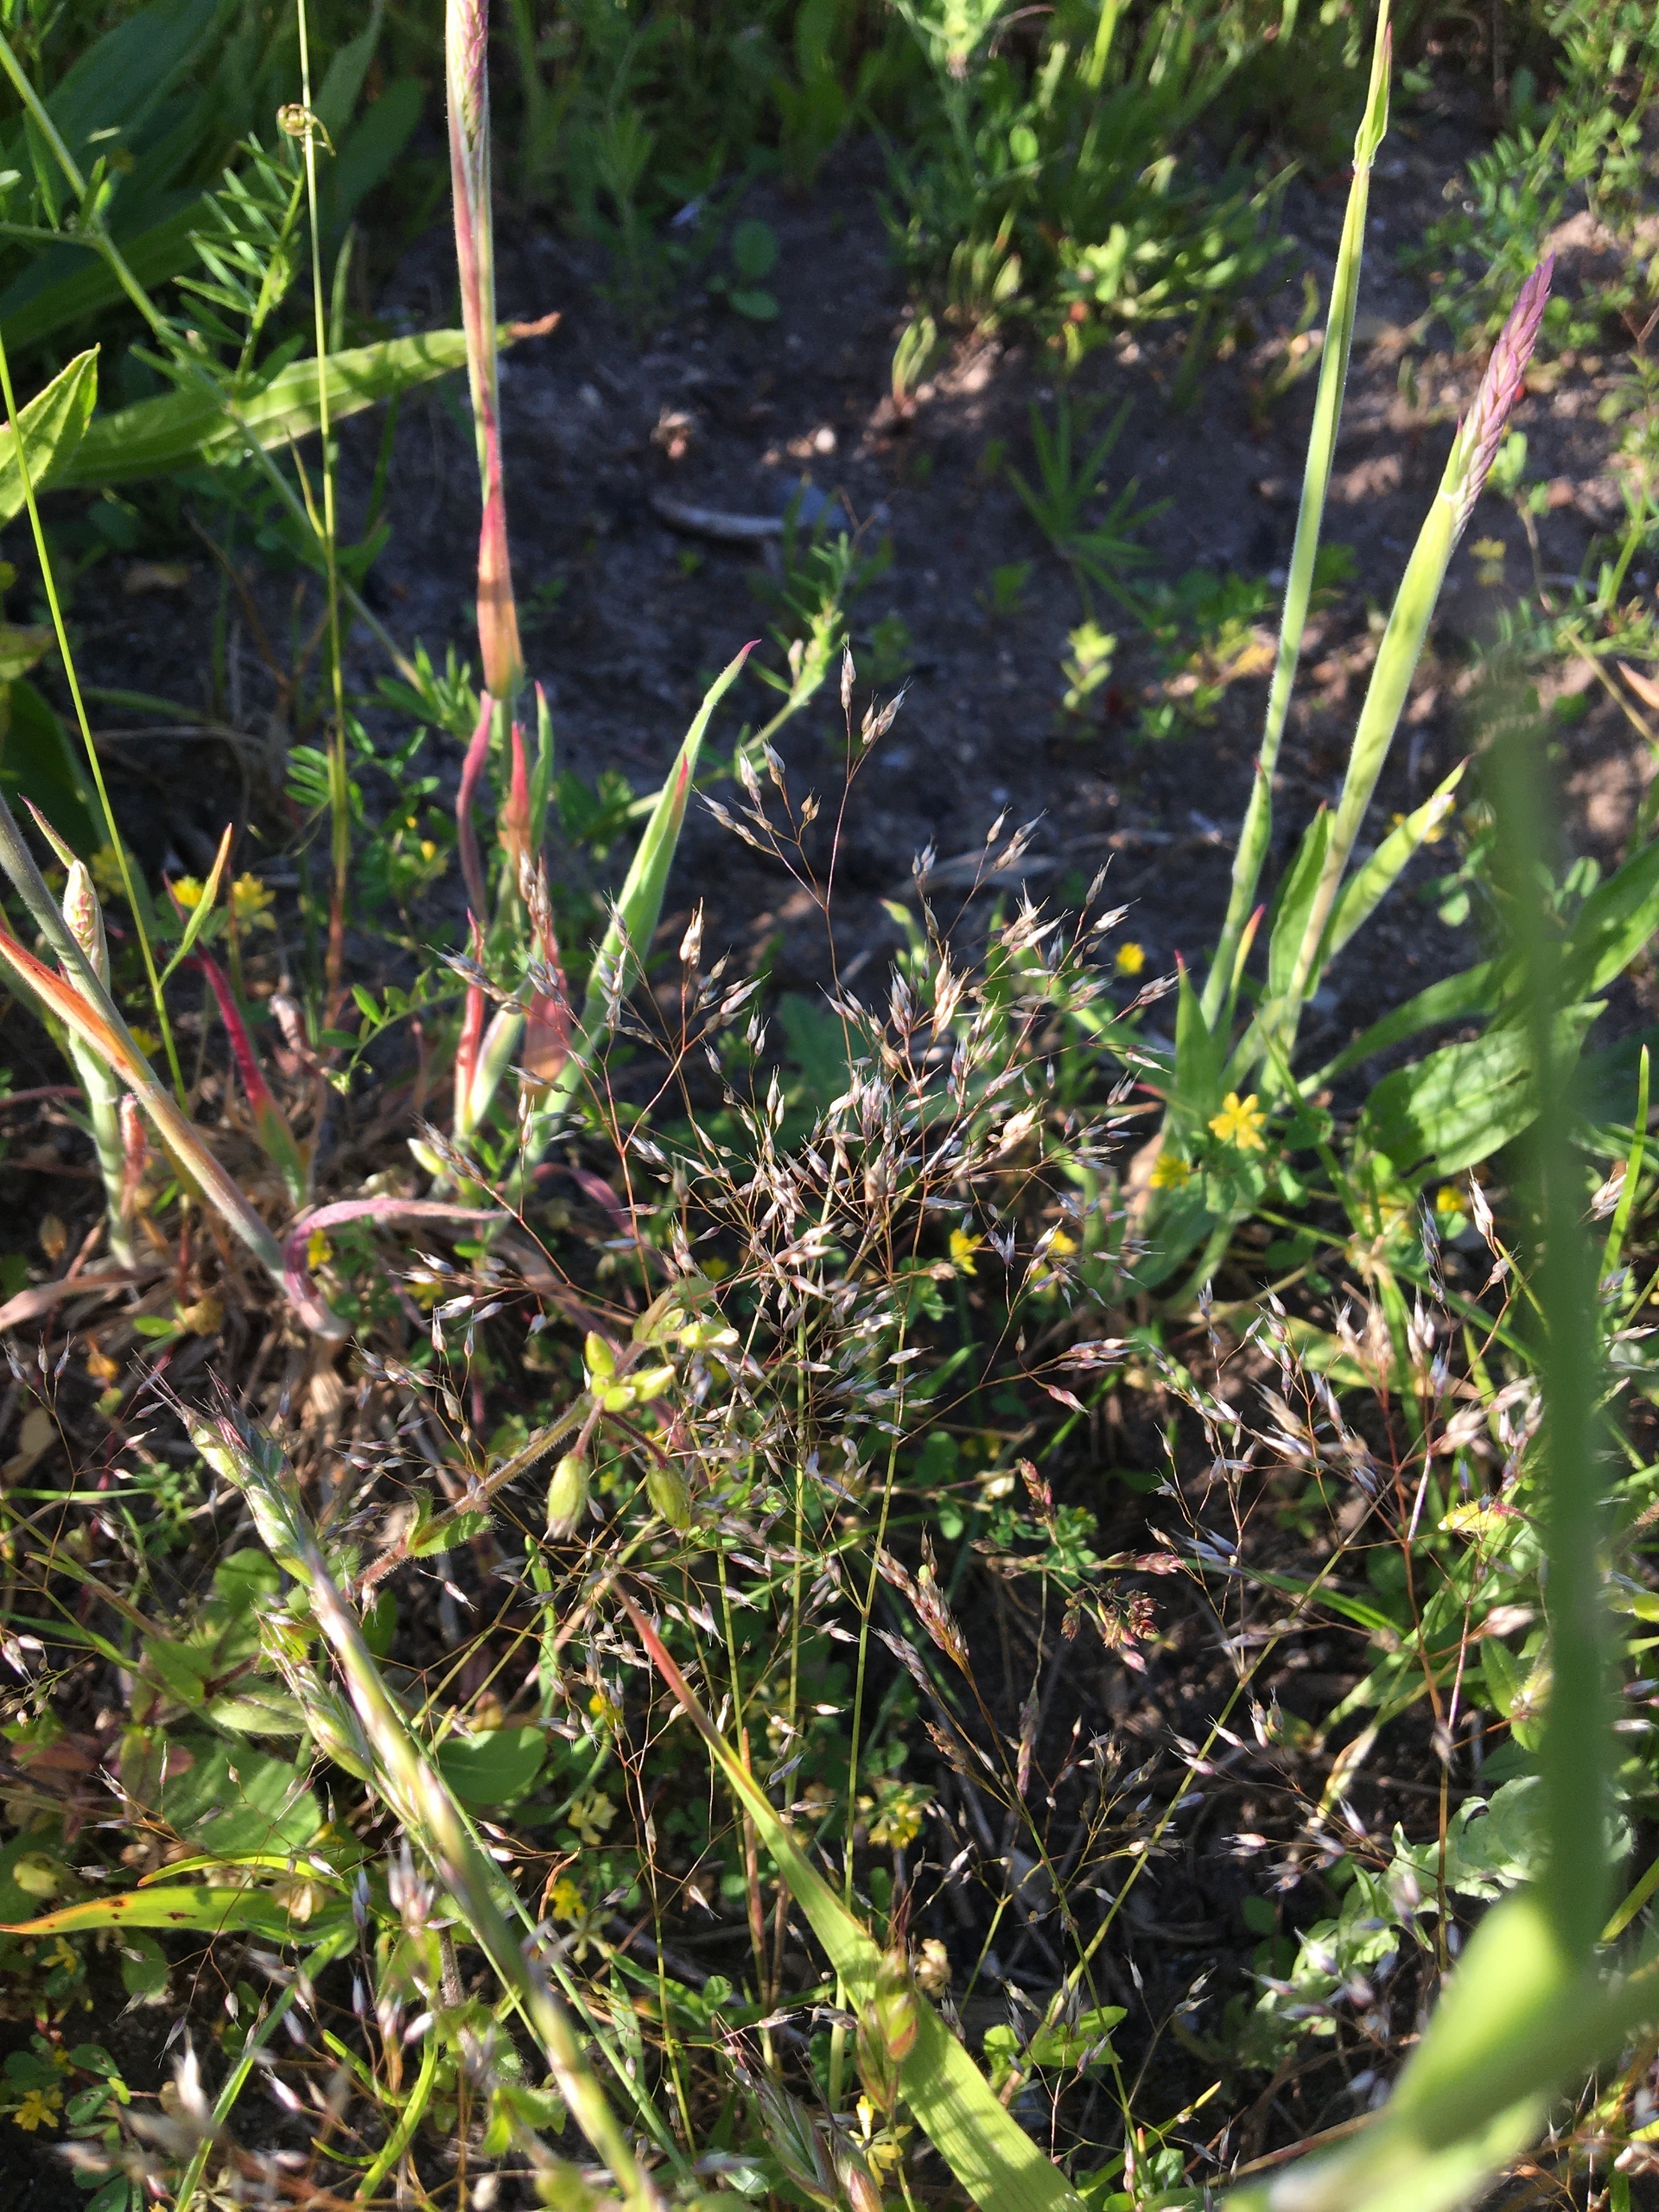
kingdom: Plantae
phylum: Tracheophyta
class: Liliopsida
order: Poales
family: Poaceae
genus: Aira
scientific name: Aira caryophyllea
